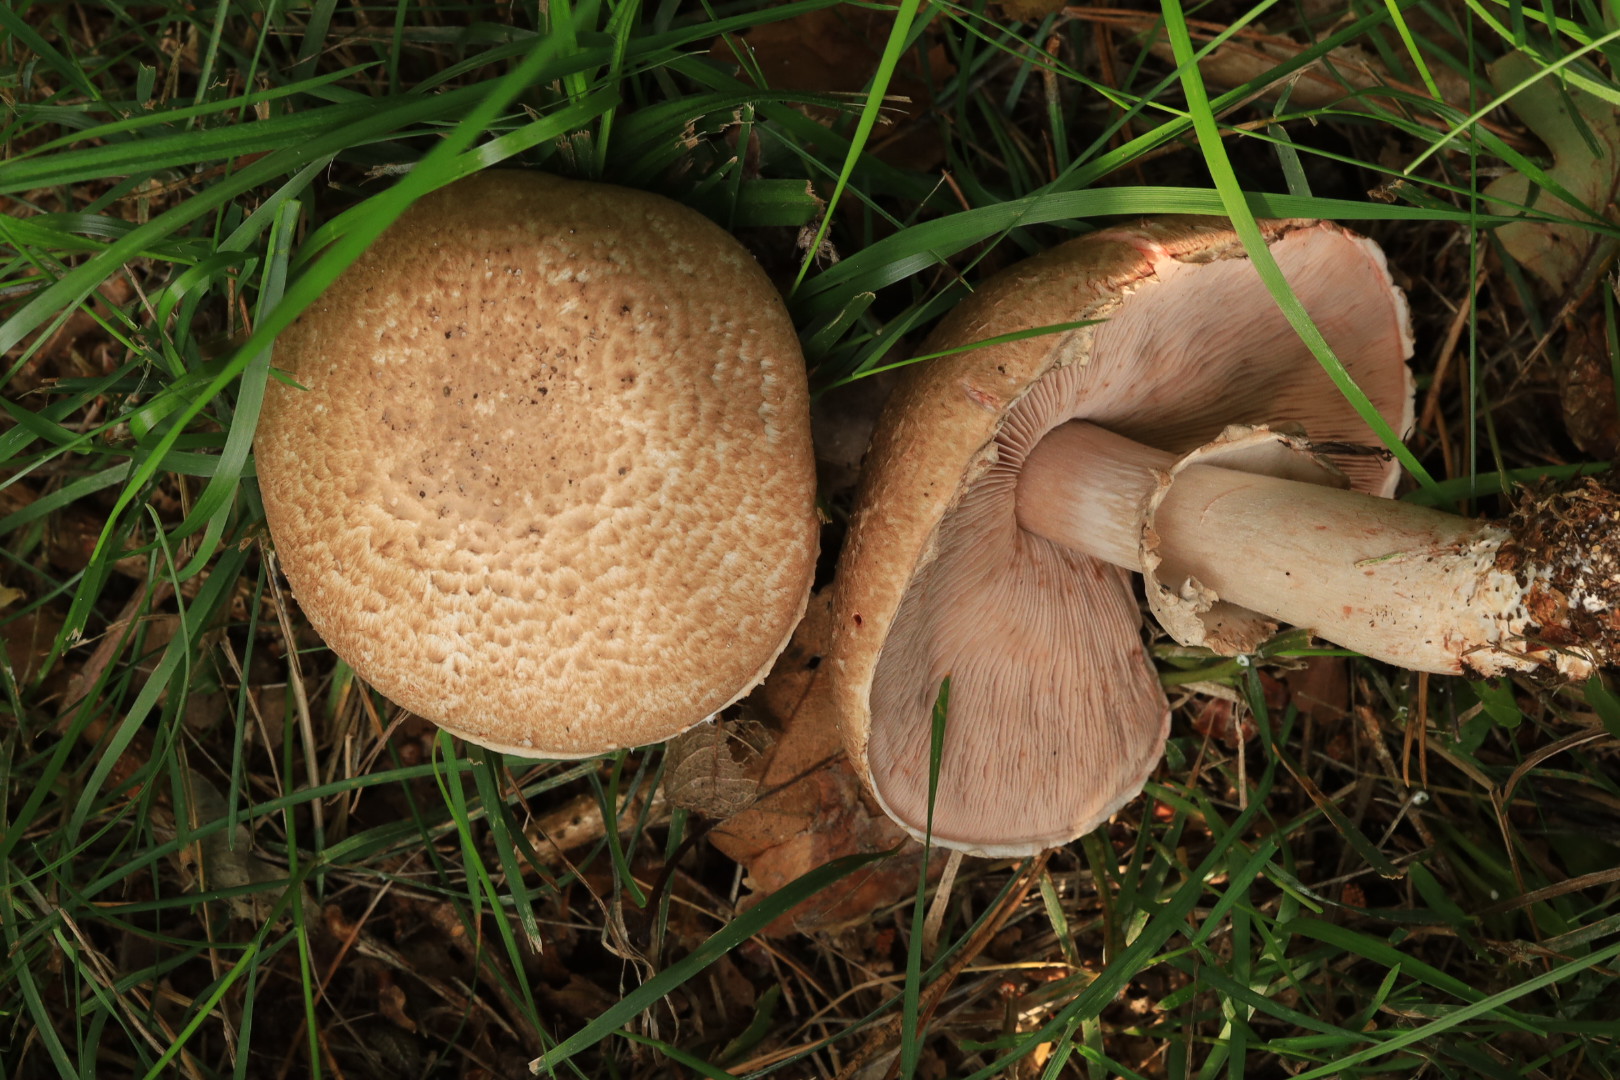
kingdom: Fungi
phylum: Basidiomycota
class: Agaricomycetes
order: Agaricales
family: Agaricaceae
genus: Agaricus
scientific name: Agaricus
